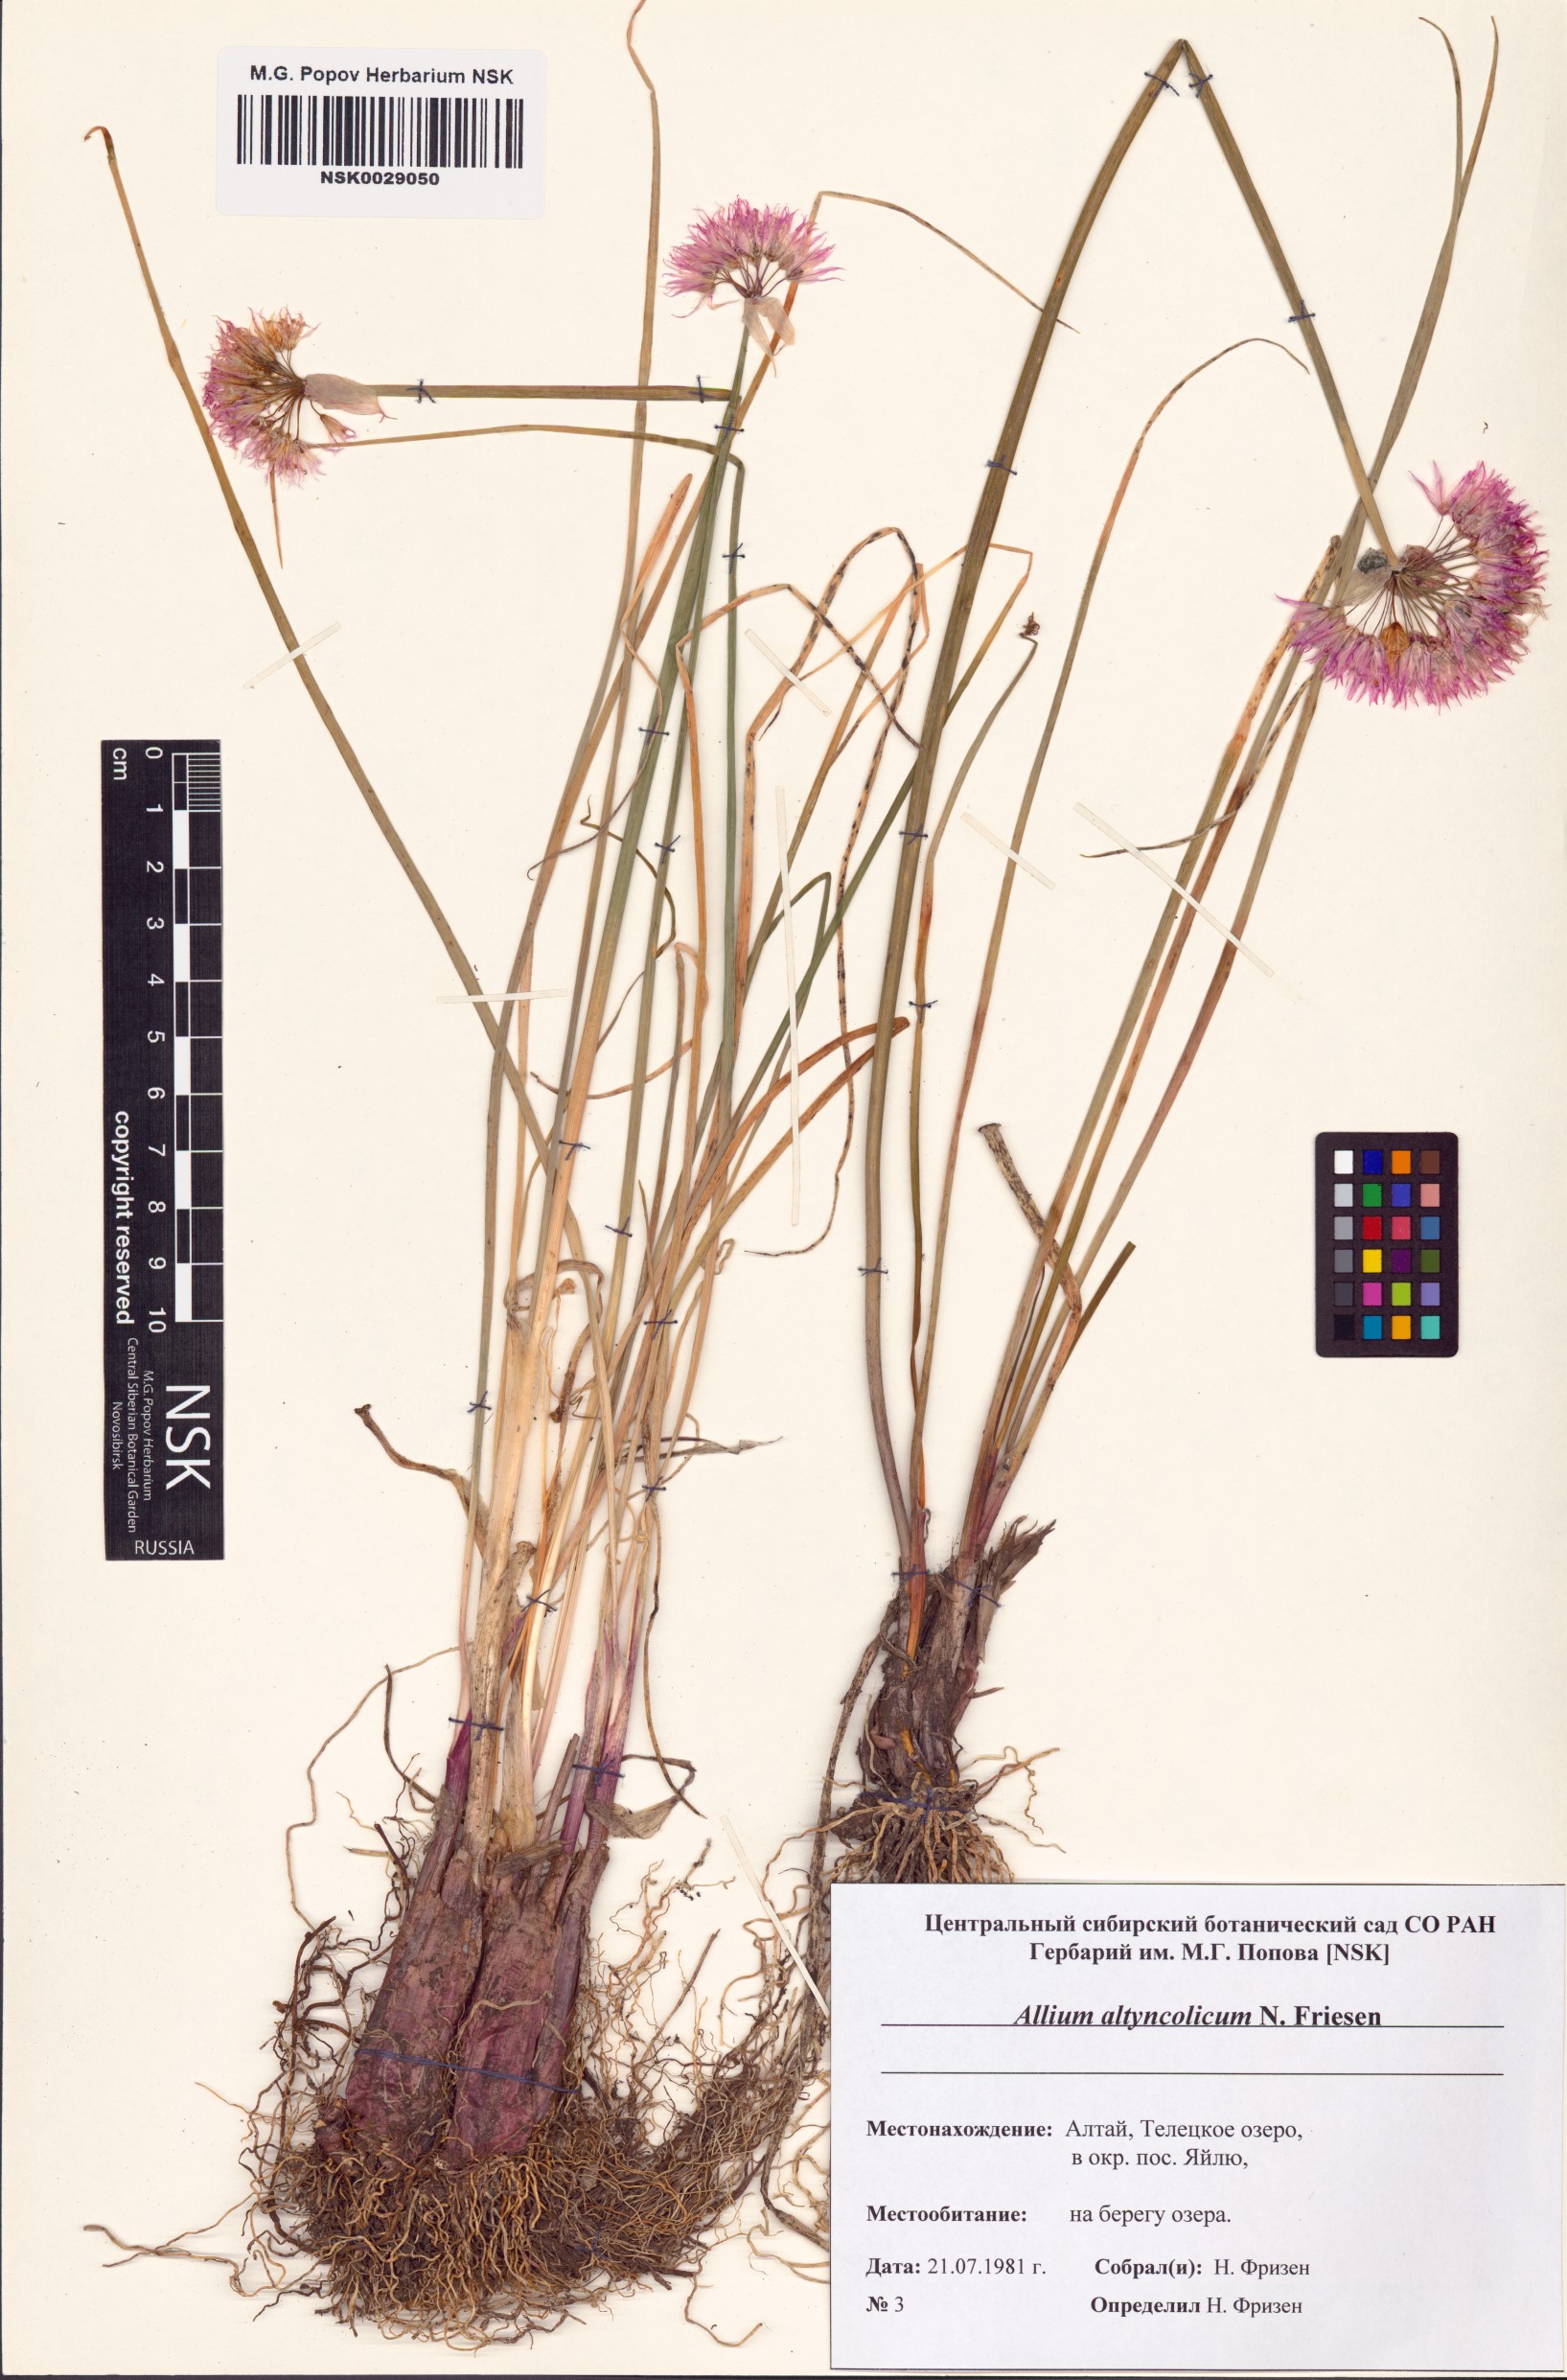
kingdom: Plantae
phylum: Tracheophyta
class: Liliopsida
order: Asparagales
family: Amaryllidaceae
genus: Allium
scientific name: Allium altyncolicum
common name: Altynkol chive
